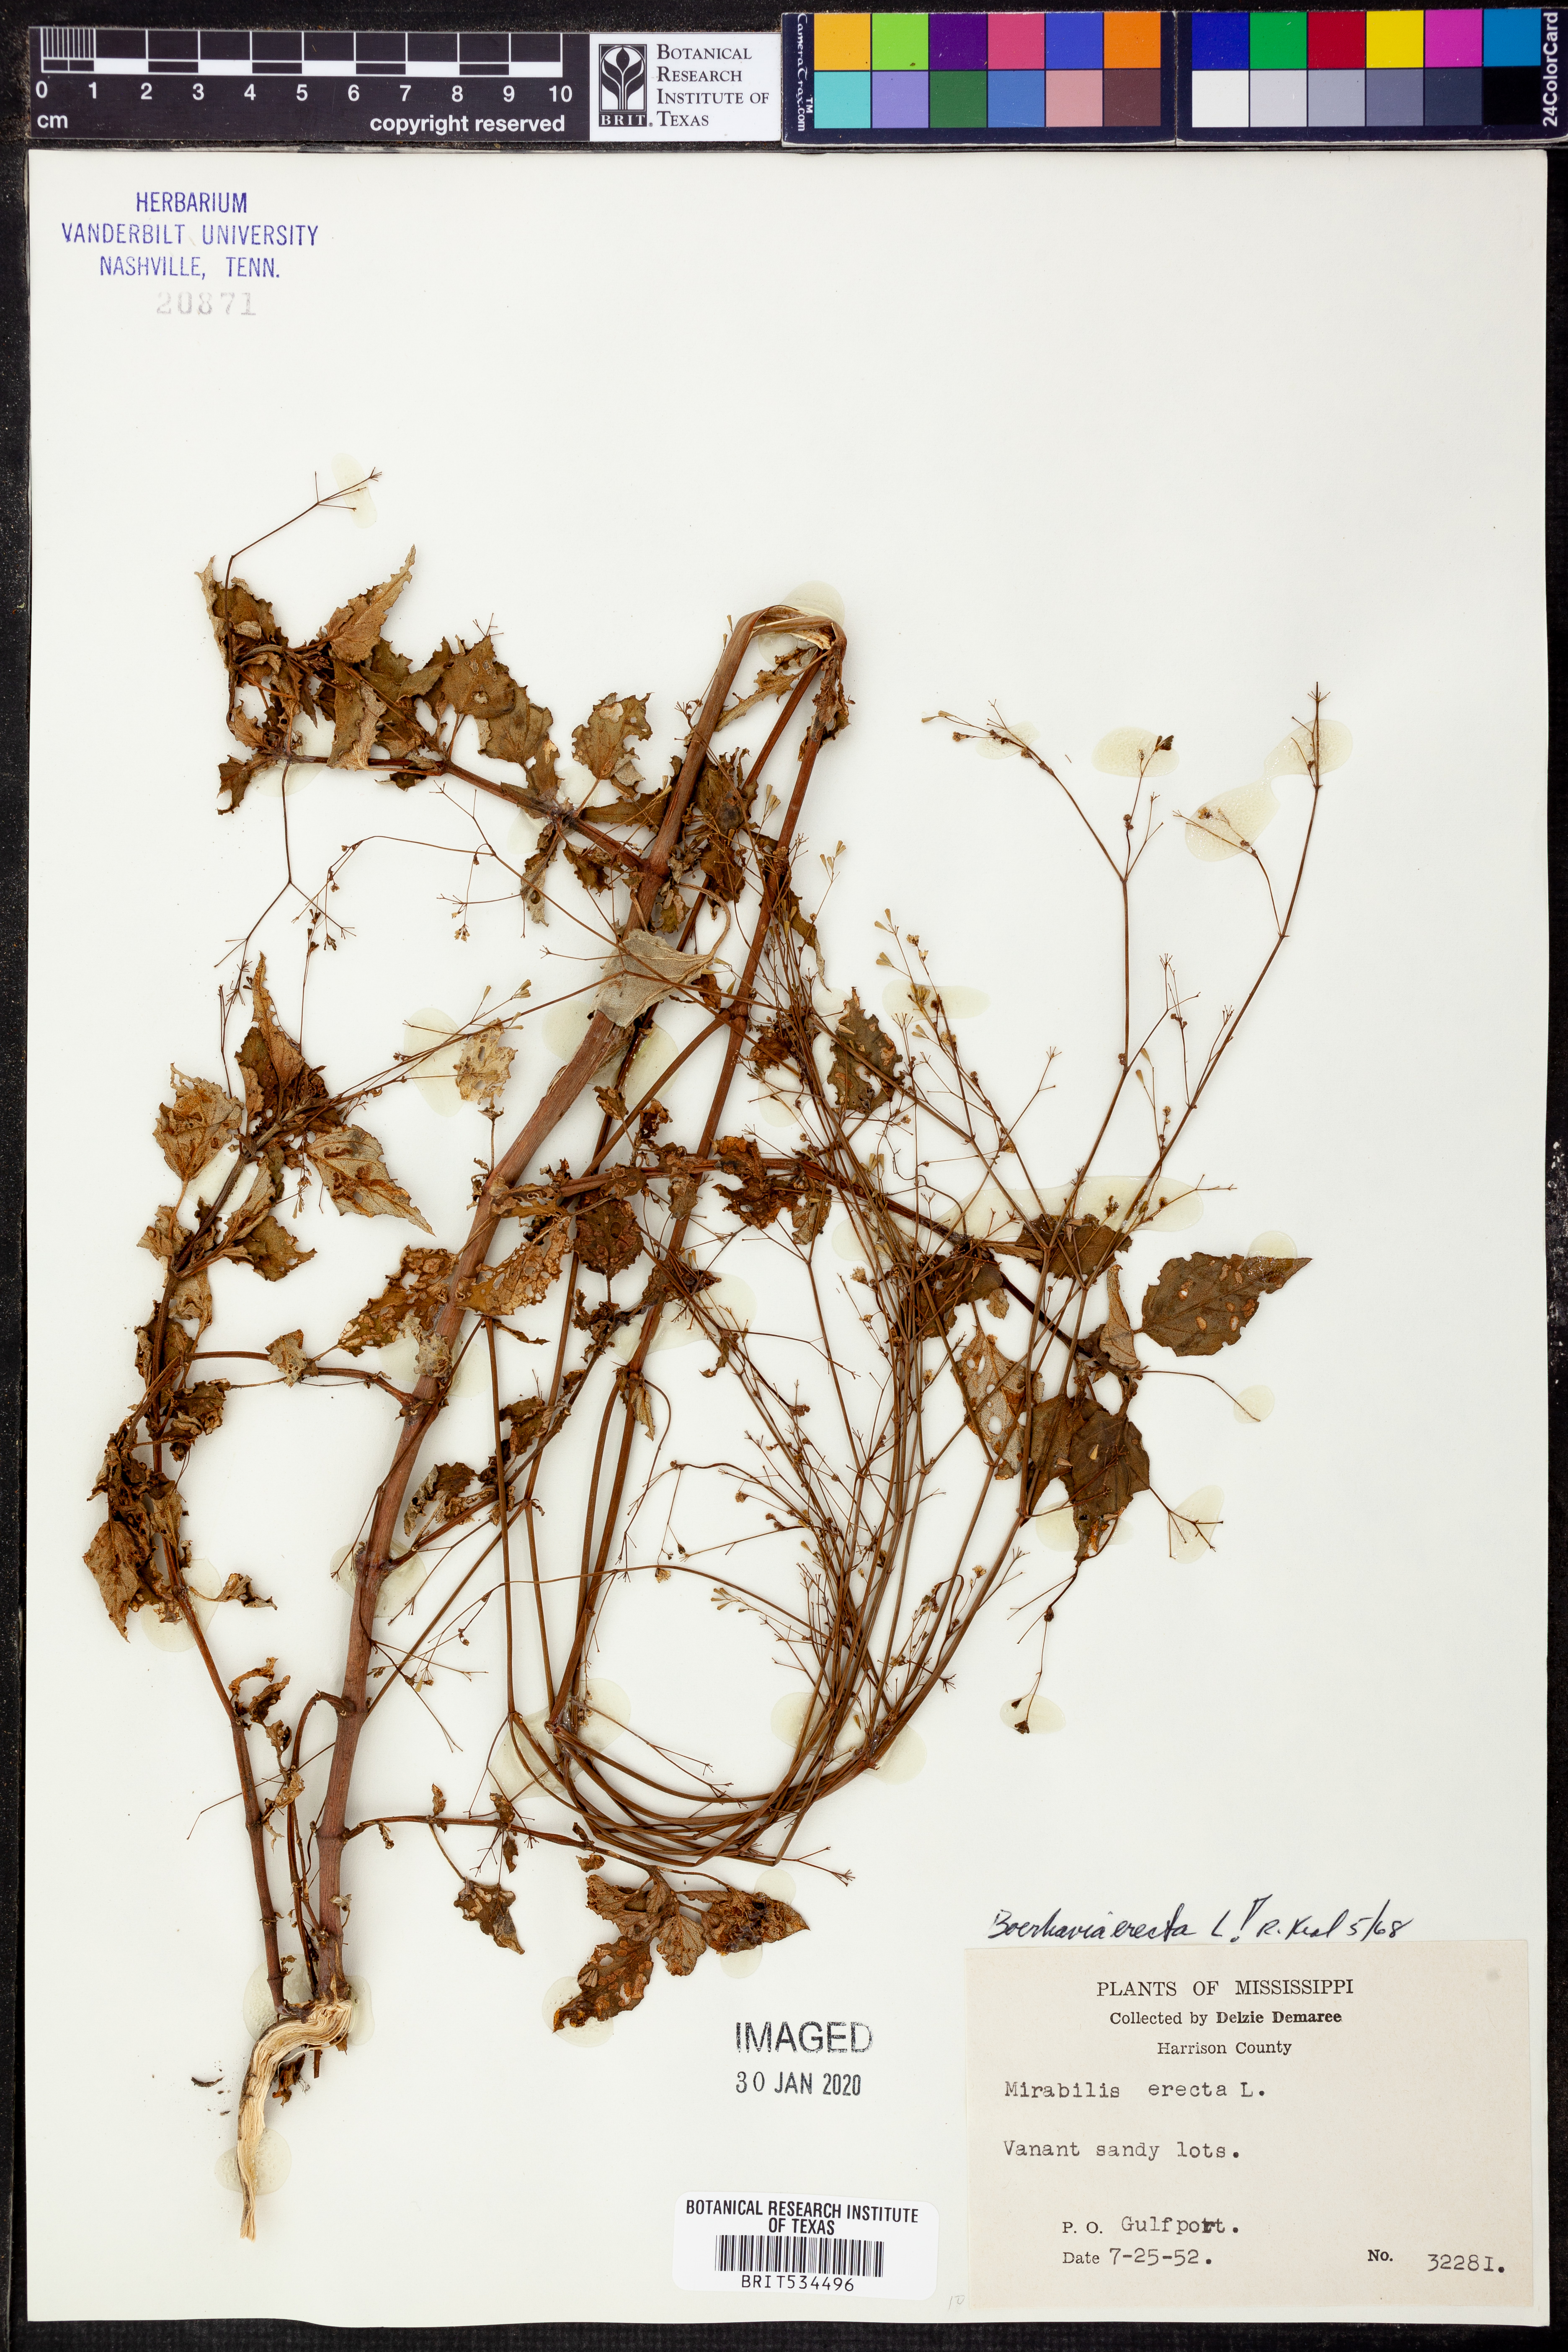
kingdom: Plantae
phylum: Tracheophyta
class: Magnoliopsida
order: Caryophyllales
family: Nyctaginaceae
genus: Boerhavia
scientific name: Boerhavia erecta
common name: Erect spiderling
